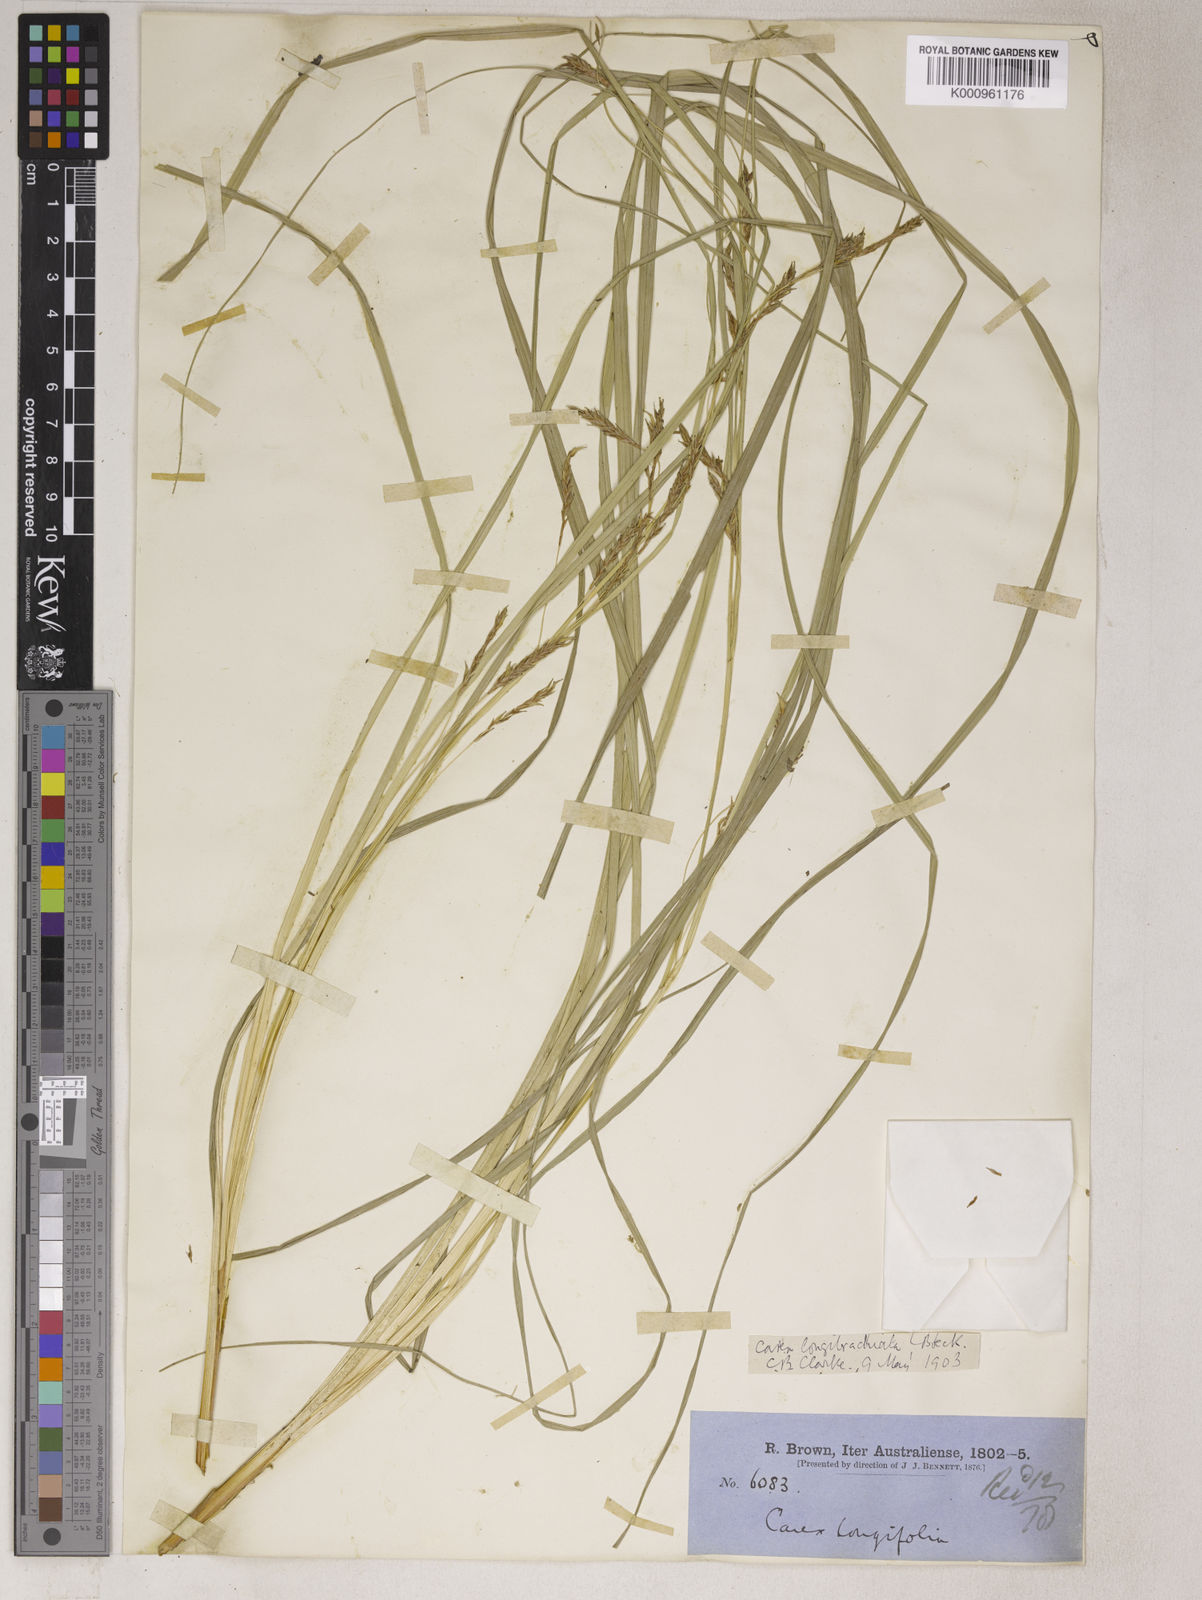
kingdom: Plantae
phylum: Tracheophyta
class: Liliopsida
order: Poales
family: Cyperaceae
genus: Carex
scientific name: Carex
